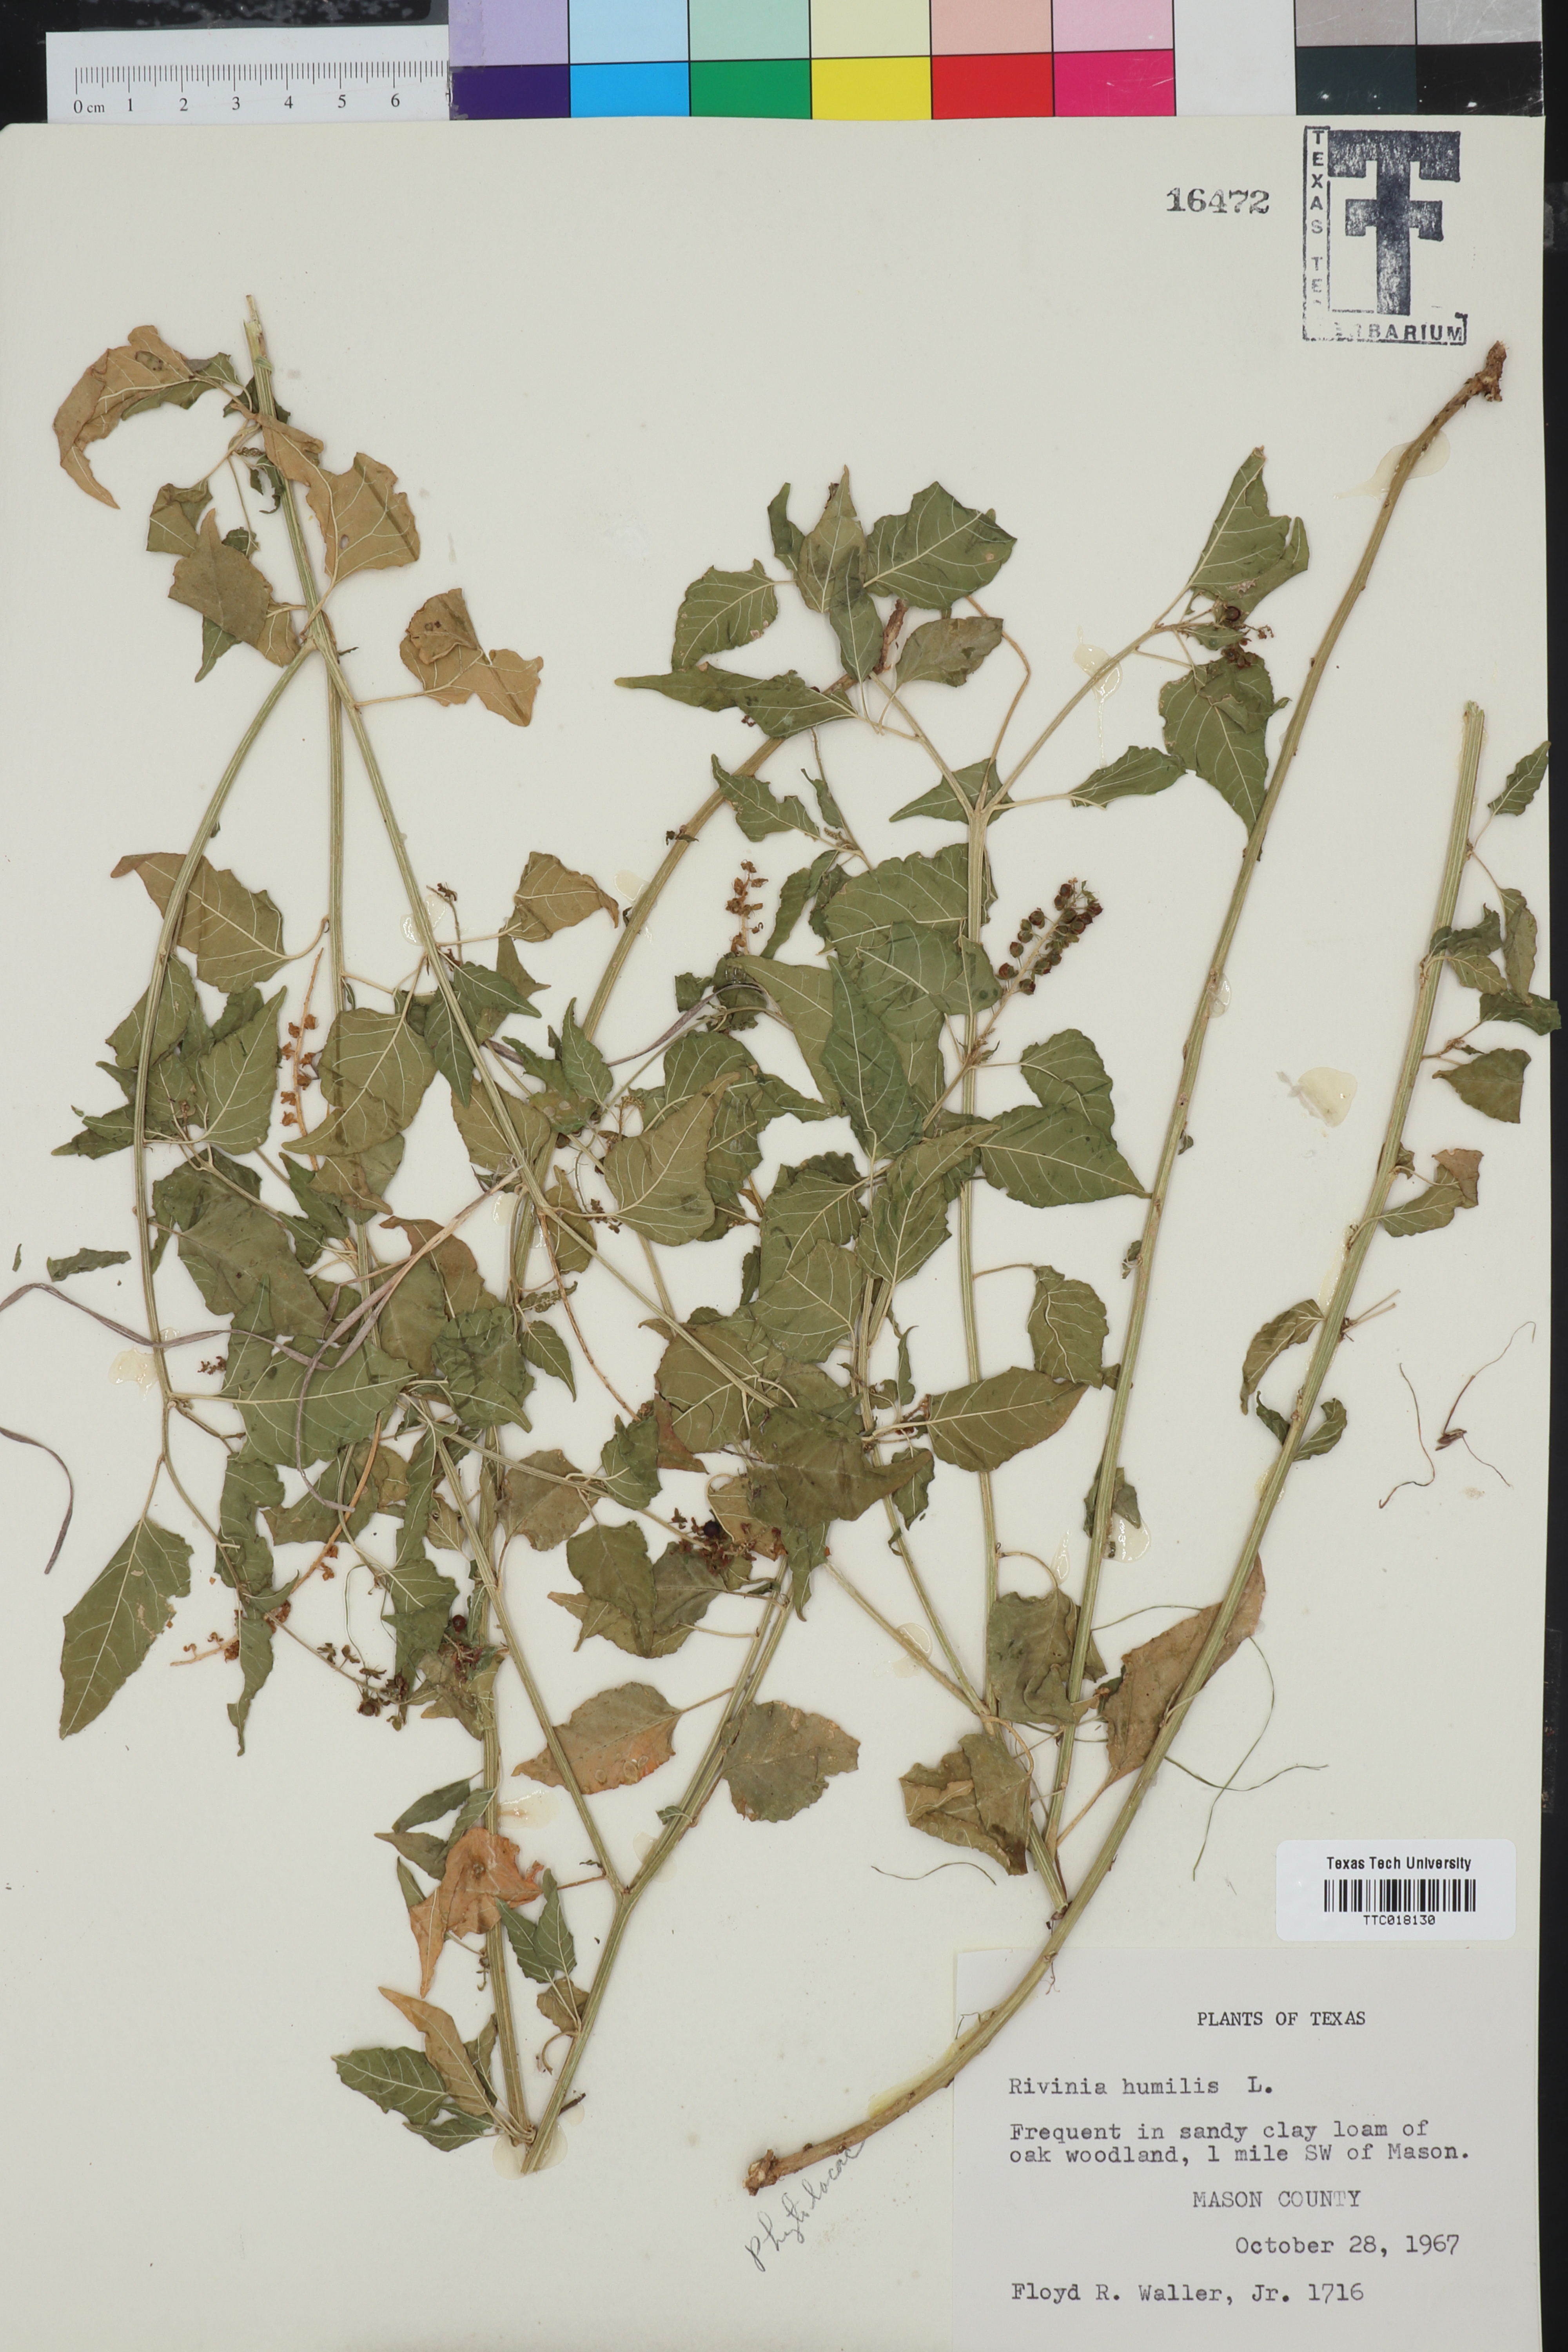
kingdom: Plantae
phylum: Tracheophyta
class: Magnoliopsida
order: Caryophyllales
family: Phytolaccaceae
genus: Rivina
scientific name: Rivina humilis
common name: Rougeplant
